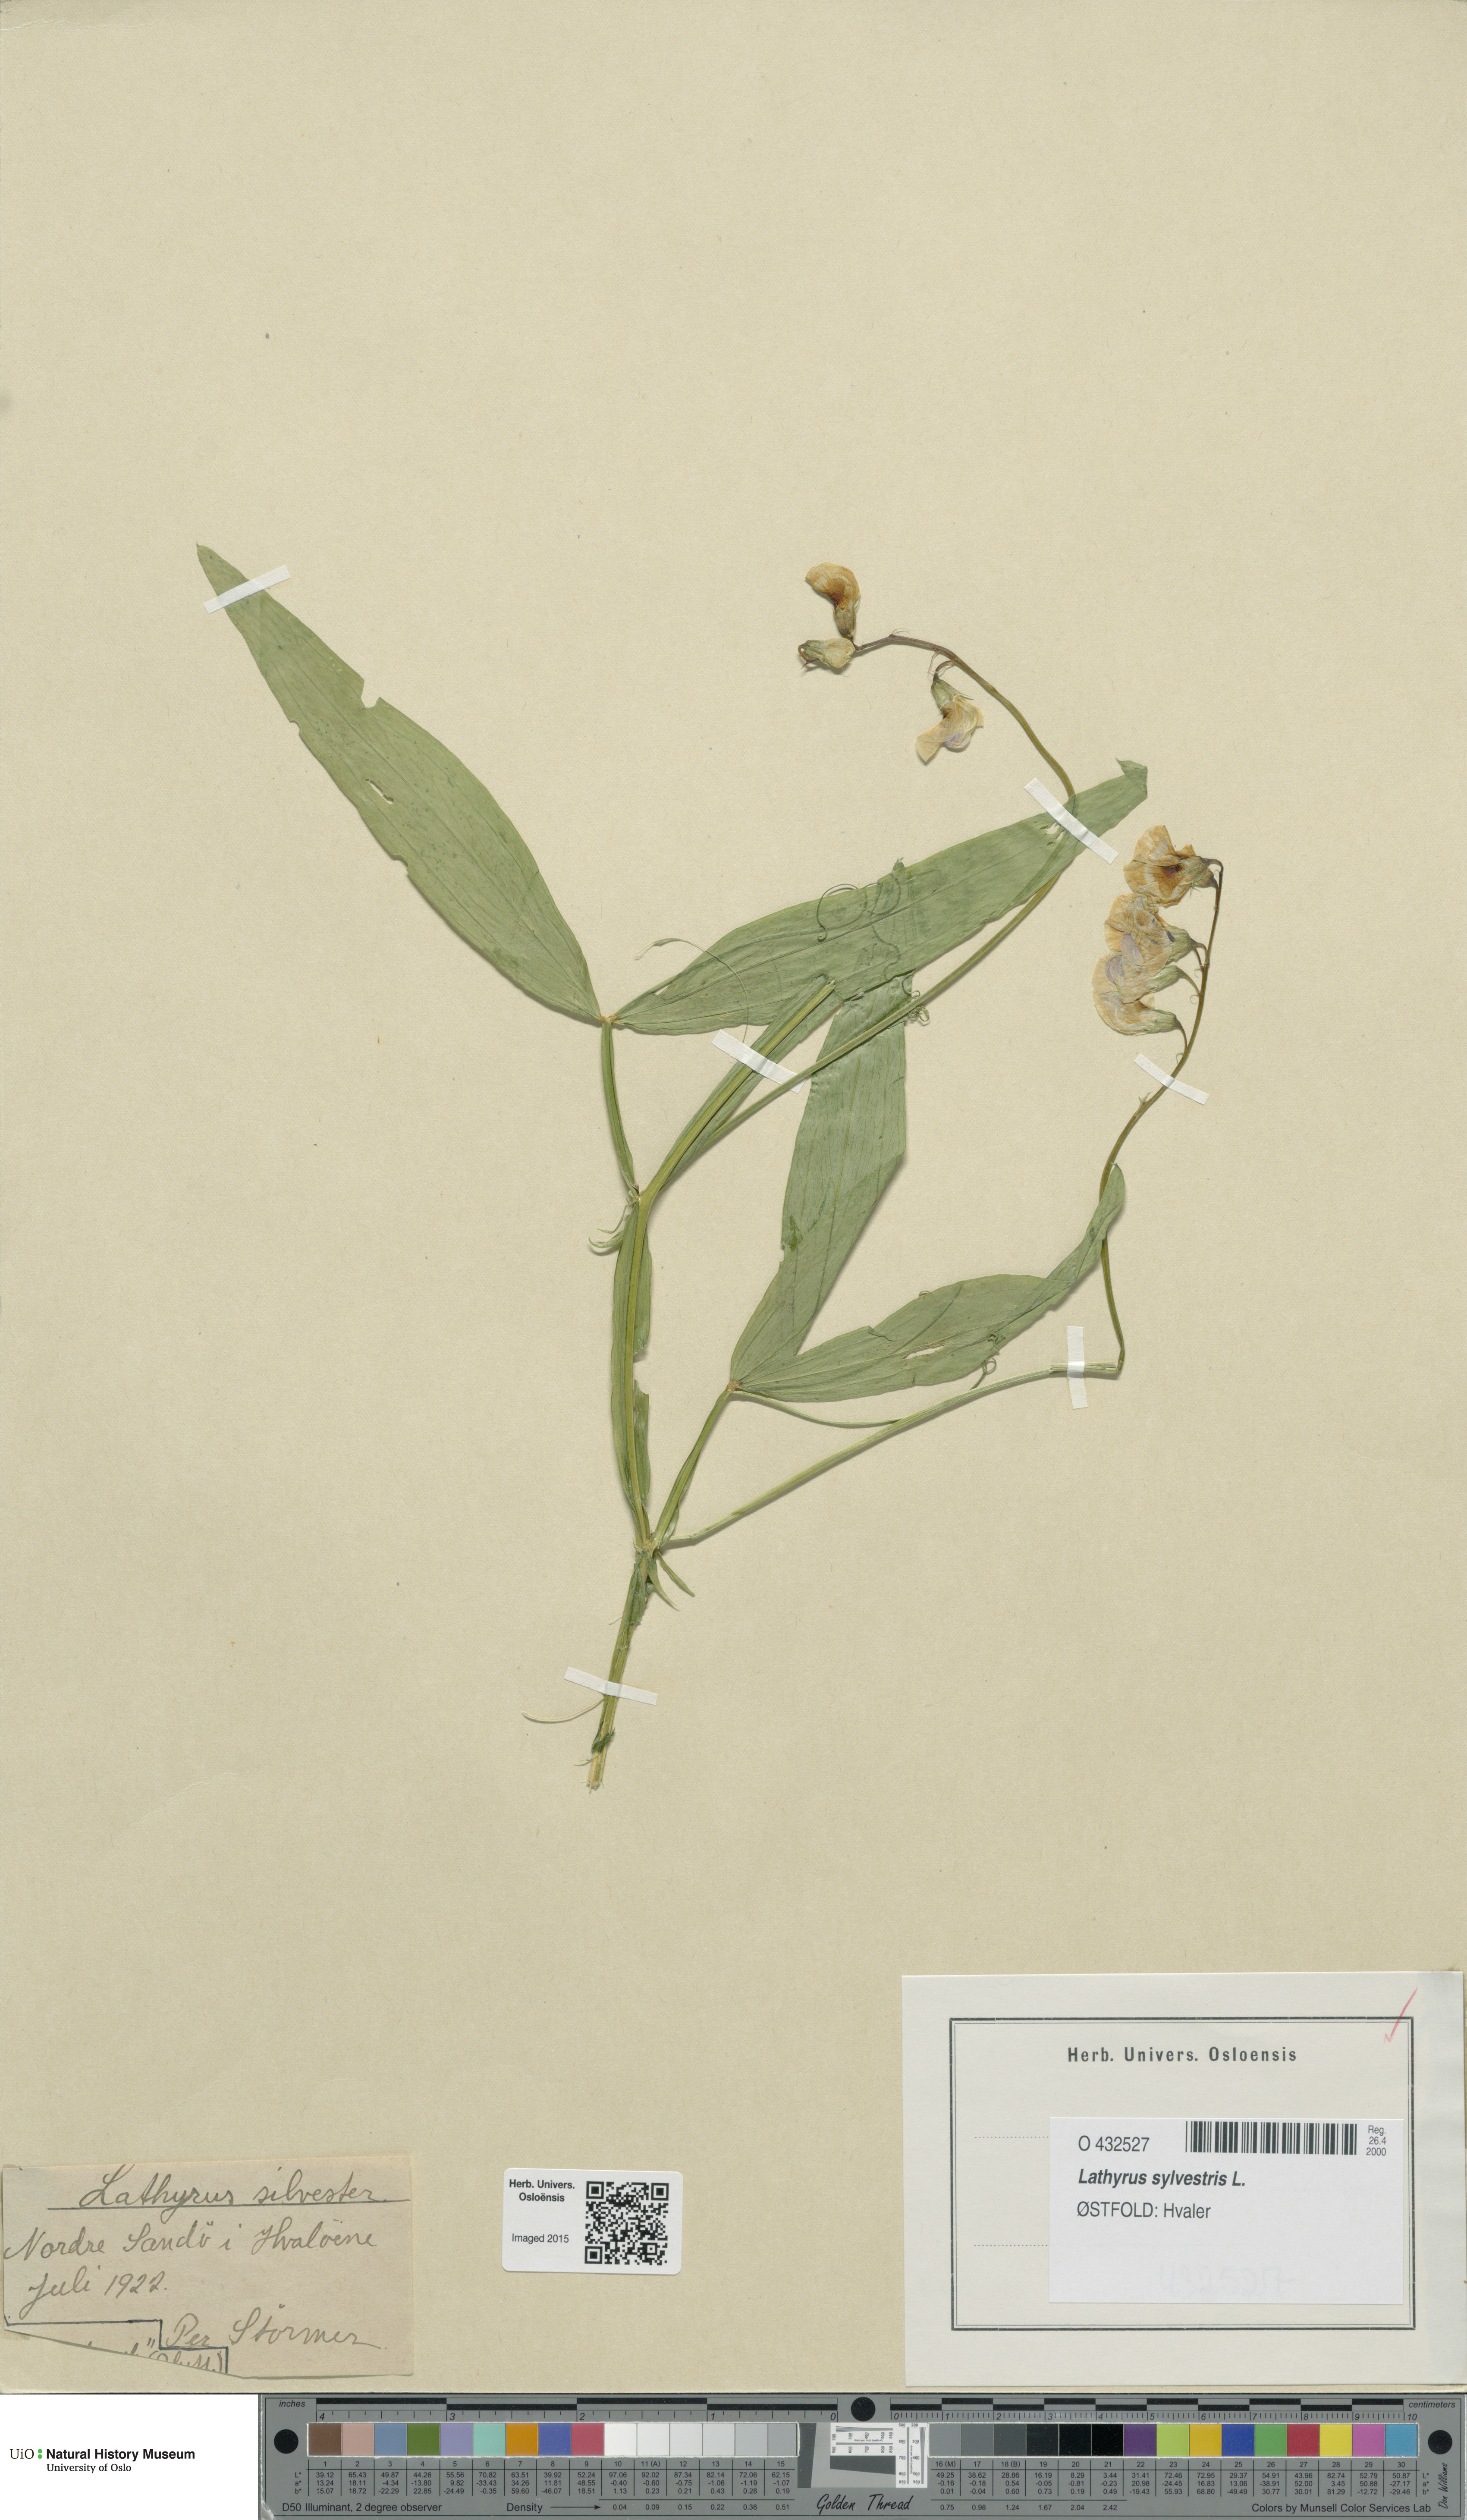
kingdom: Plantae
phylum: Tracheophyta
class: Magnoliopsida
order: Fabales
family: Fabaceae
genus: Lathyrus
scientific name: Lathyrus sylvestris
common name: Flat pea
